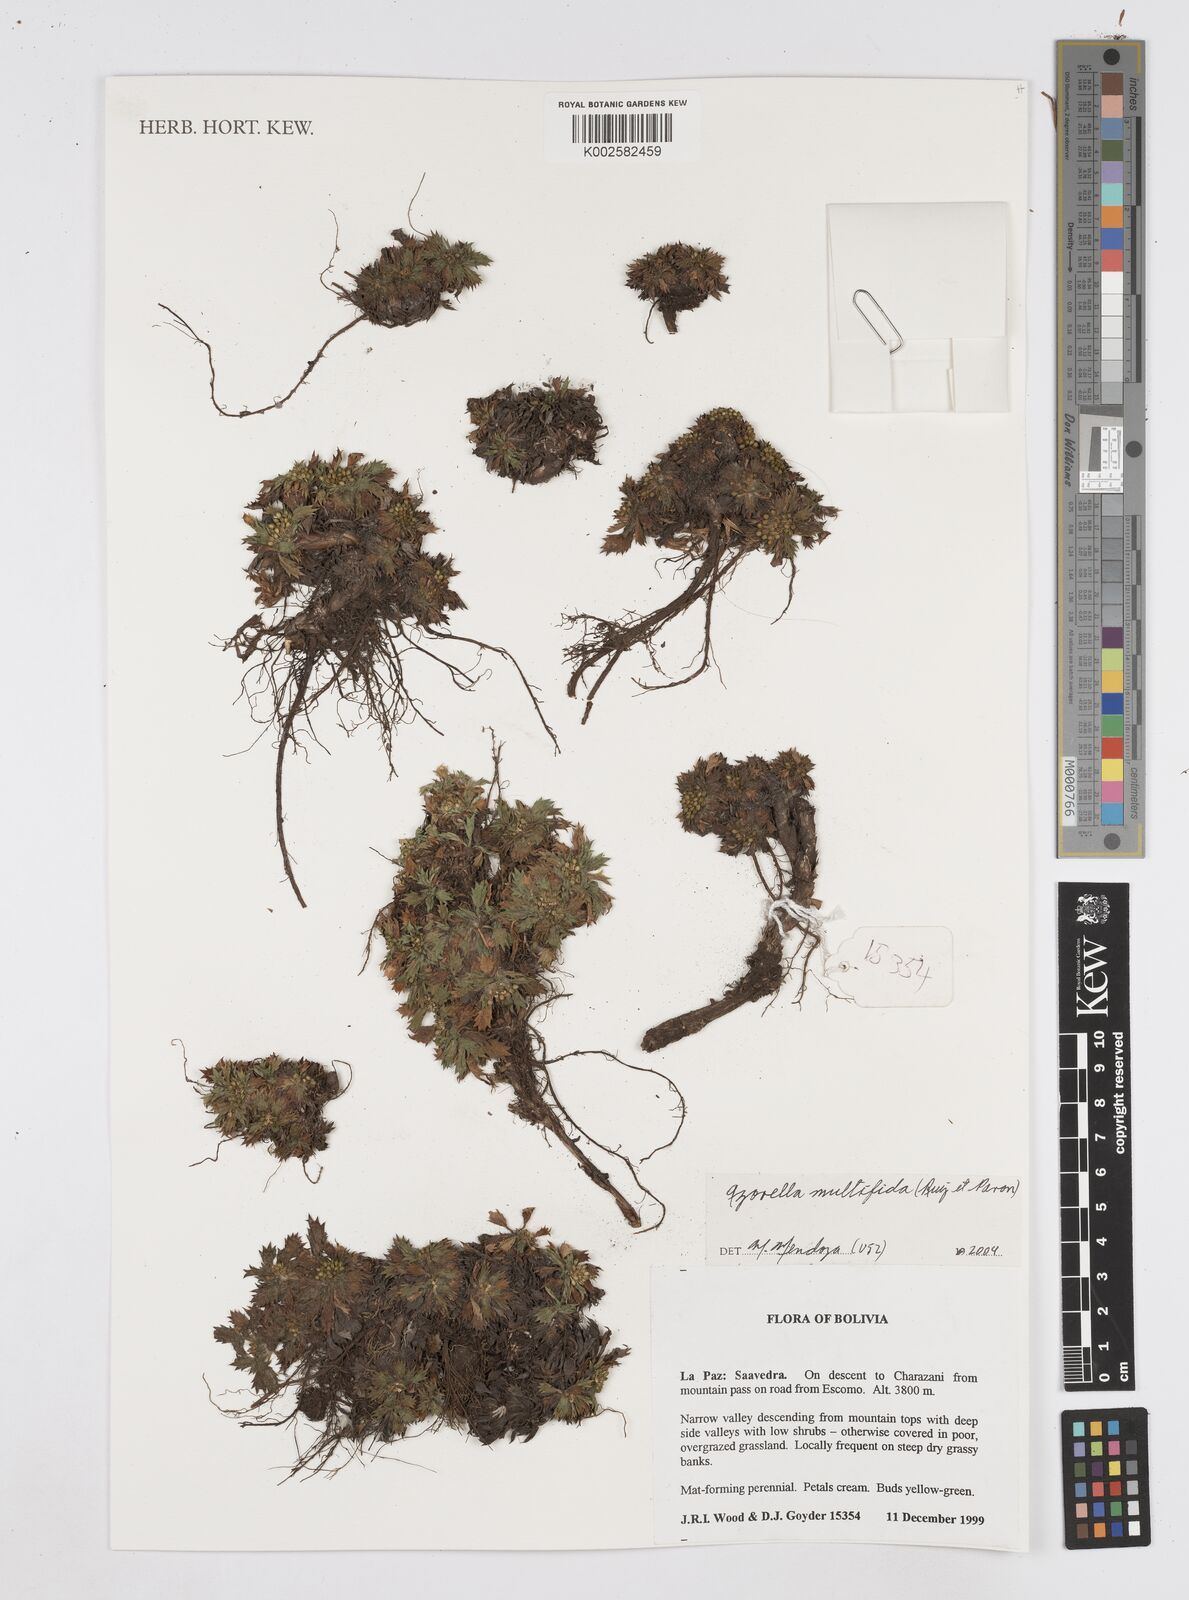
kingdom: Plantae
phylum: Tracheophyta
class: Magnoliopsida
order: Apiales
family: Apiaceae
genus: Azorella
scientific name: Azorella multifida
